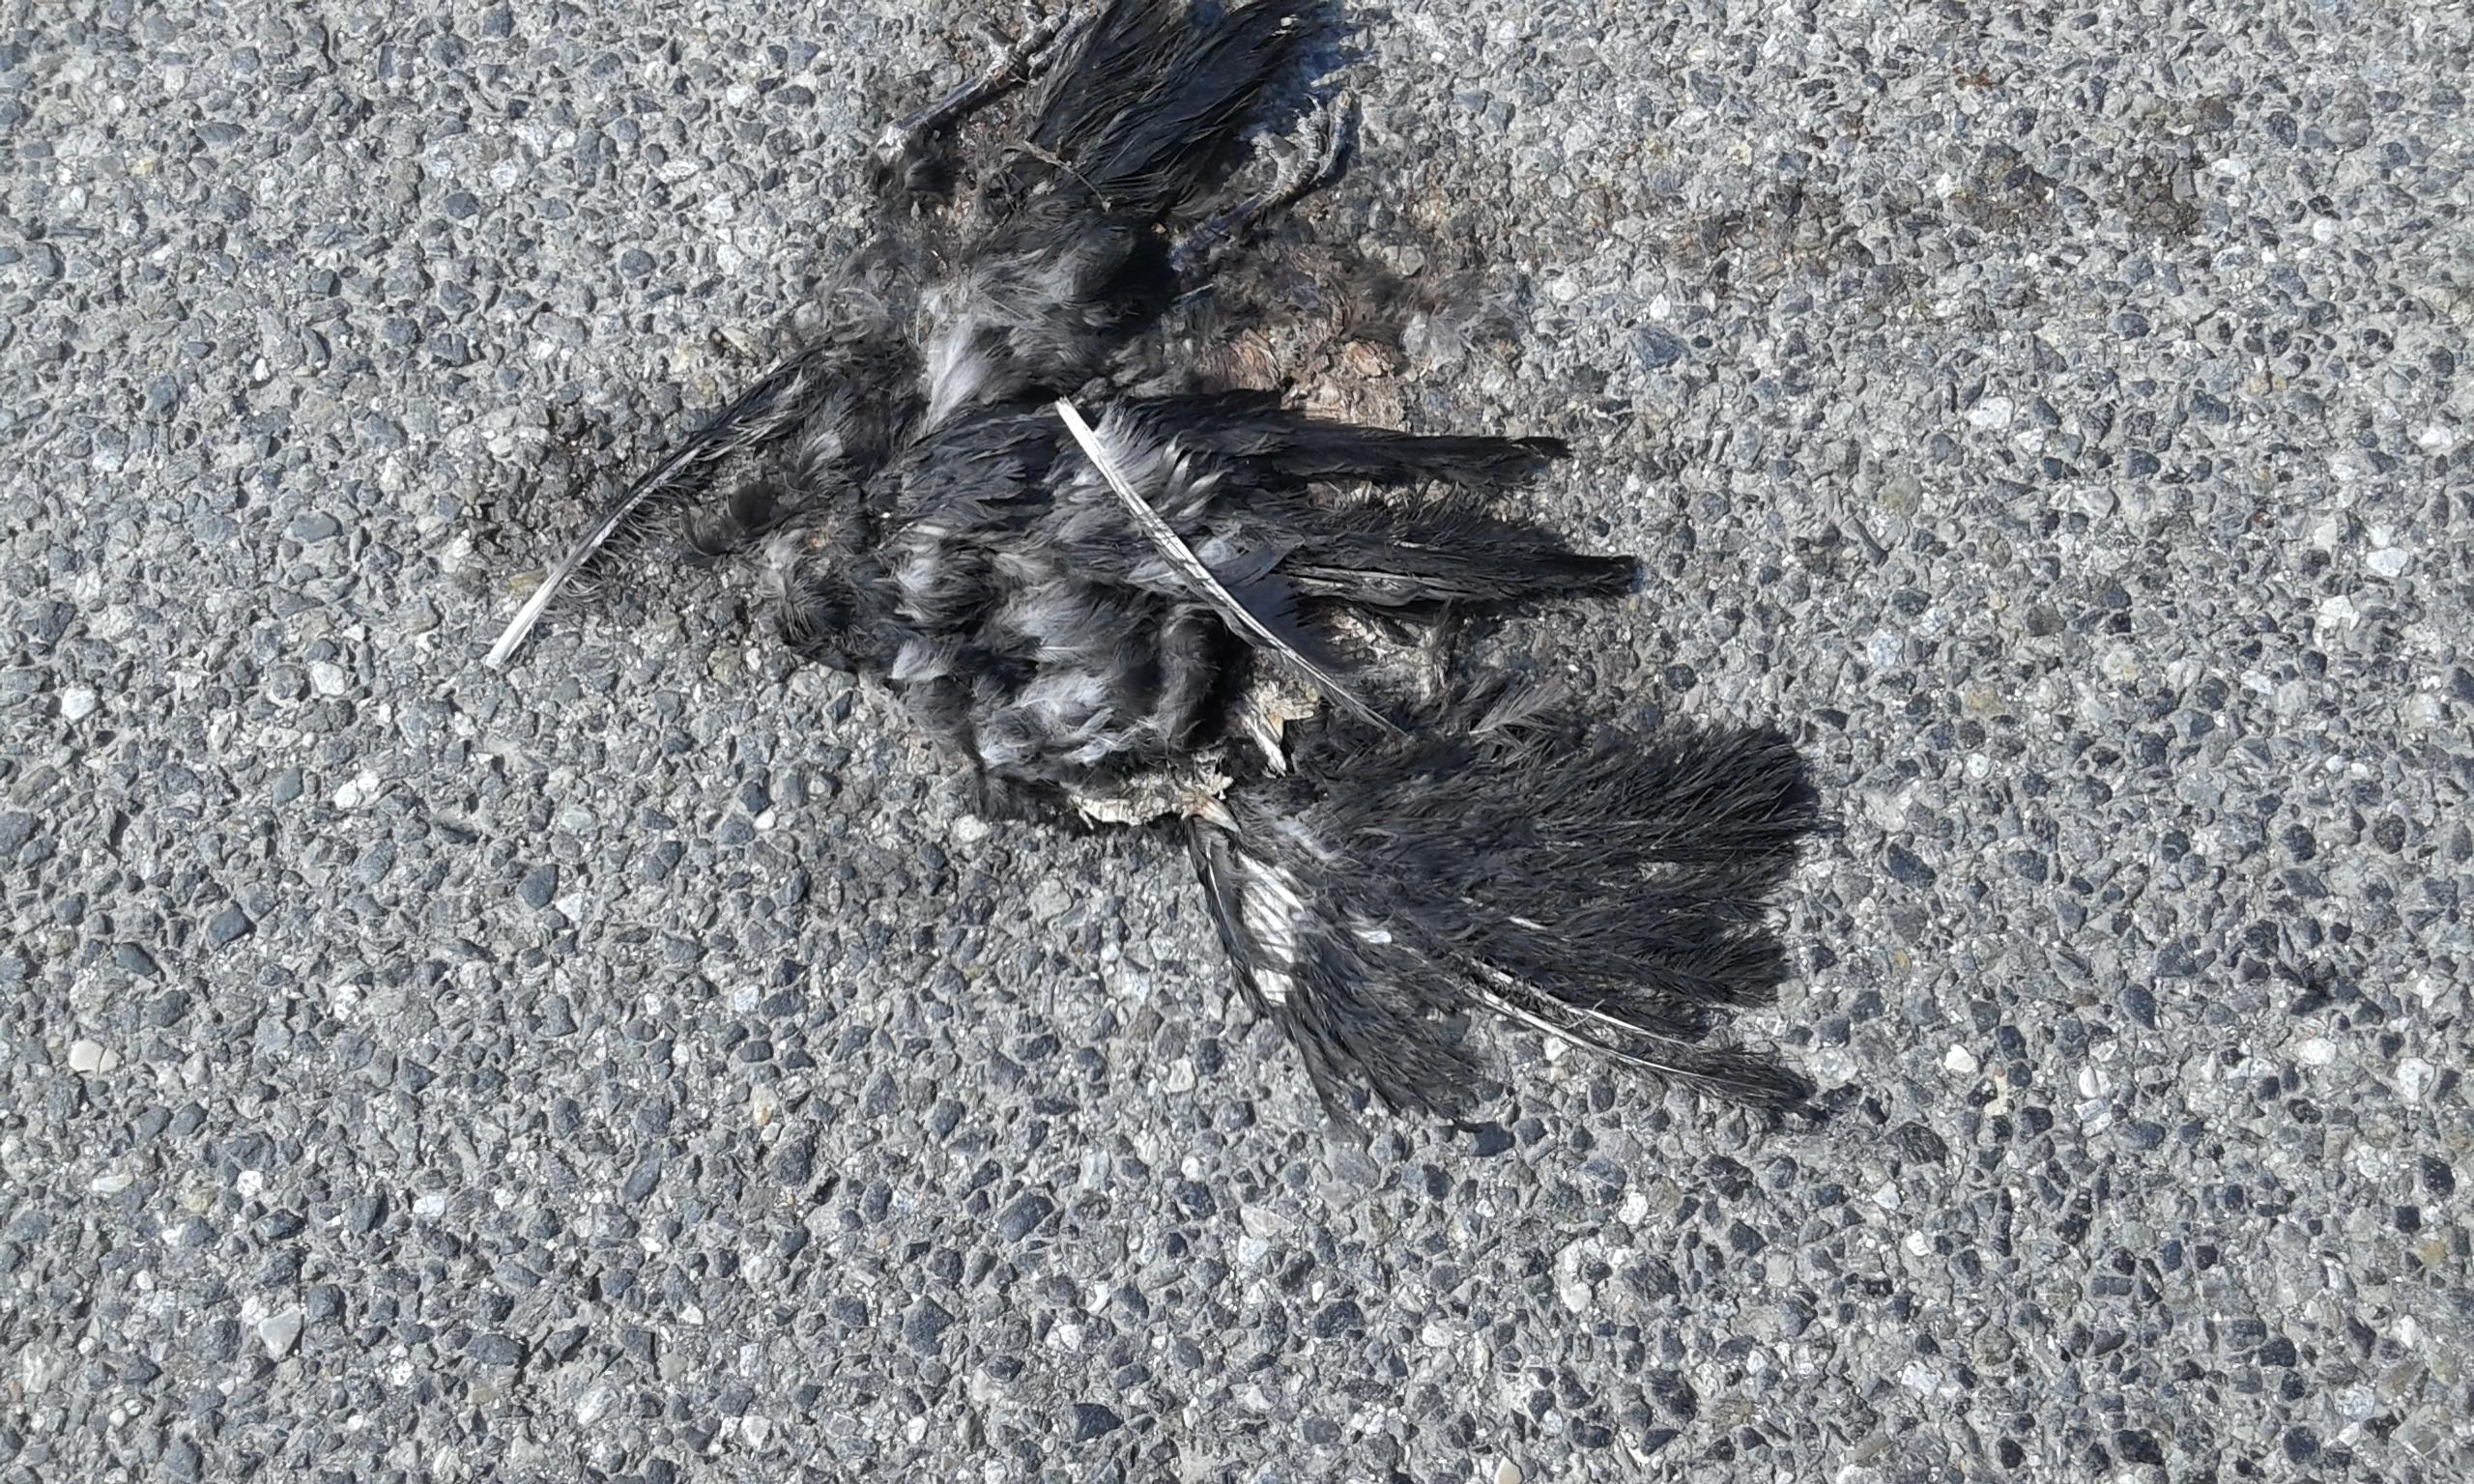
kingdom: Animalia
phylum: Chordata
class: Aves
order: Passeriformes
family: Corvidae
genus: Corvus
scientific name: Corvus
